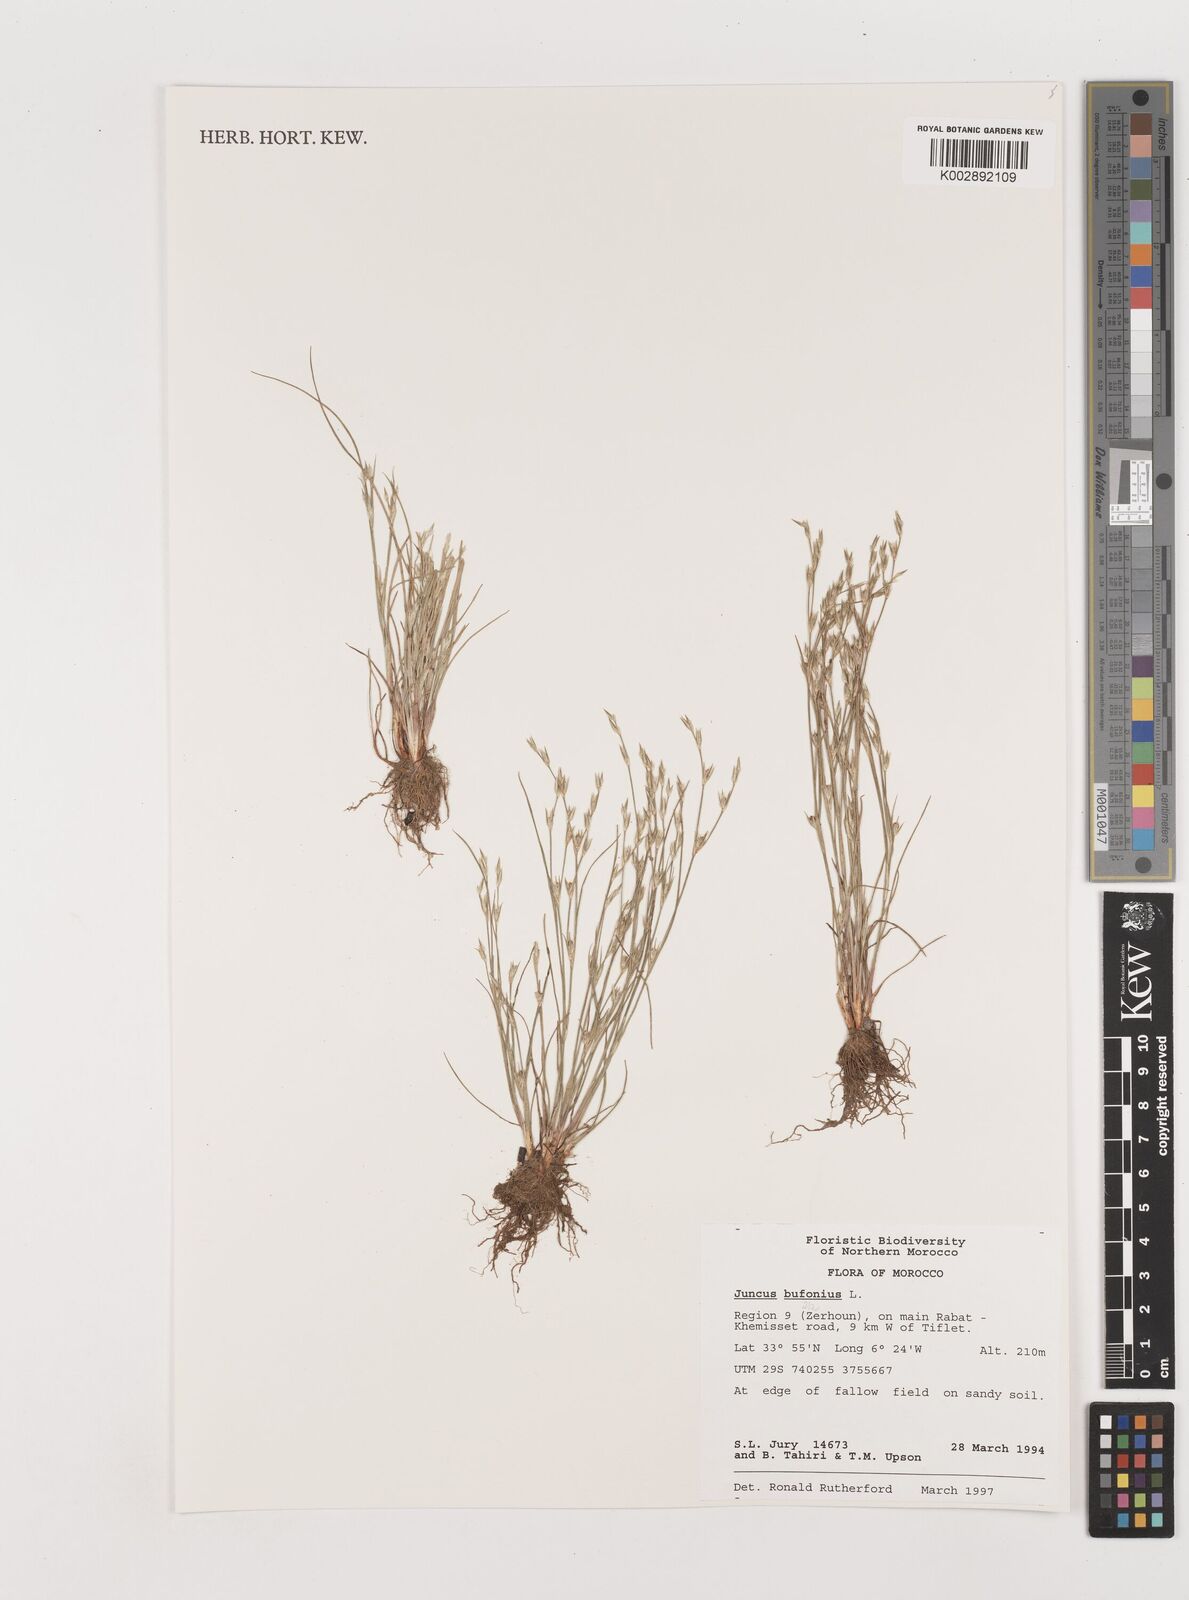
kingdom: Plantae
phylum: Tracheophyta
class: Liliopsida
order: Poales
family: Juncaceae
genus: Juncus
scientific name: Juncus bufonius
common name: Toad rush
